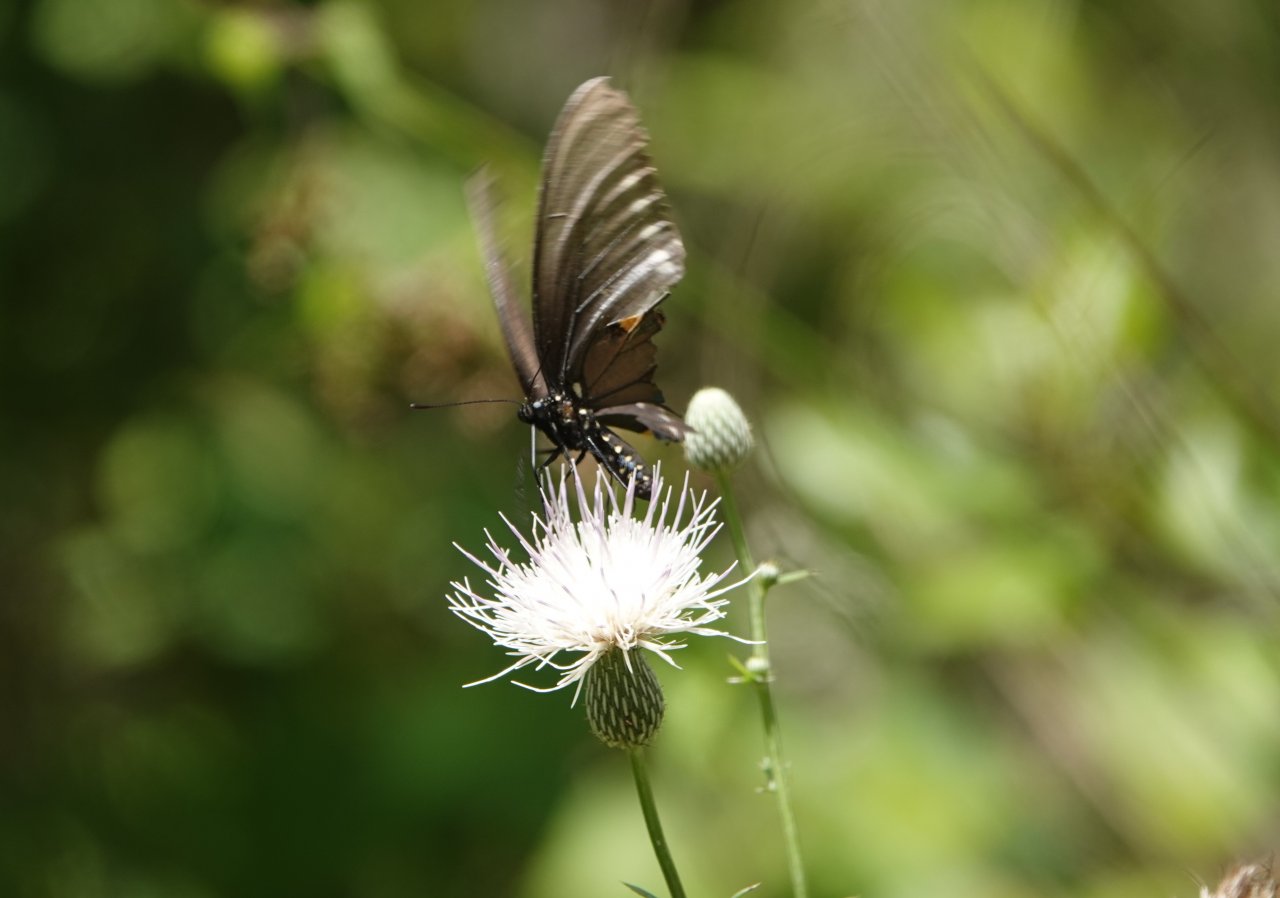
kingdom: Animalia
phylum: Arthropoda
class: Insecta
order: Lepidoptera
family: Papilionidae
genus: Battus
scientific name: Battus philenor
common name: Pipevine Swallowtail
